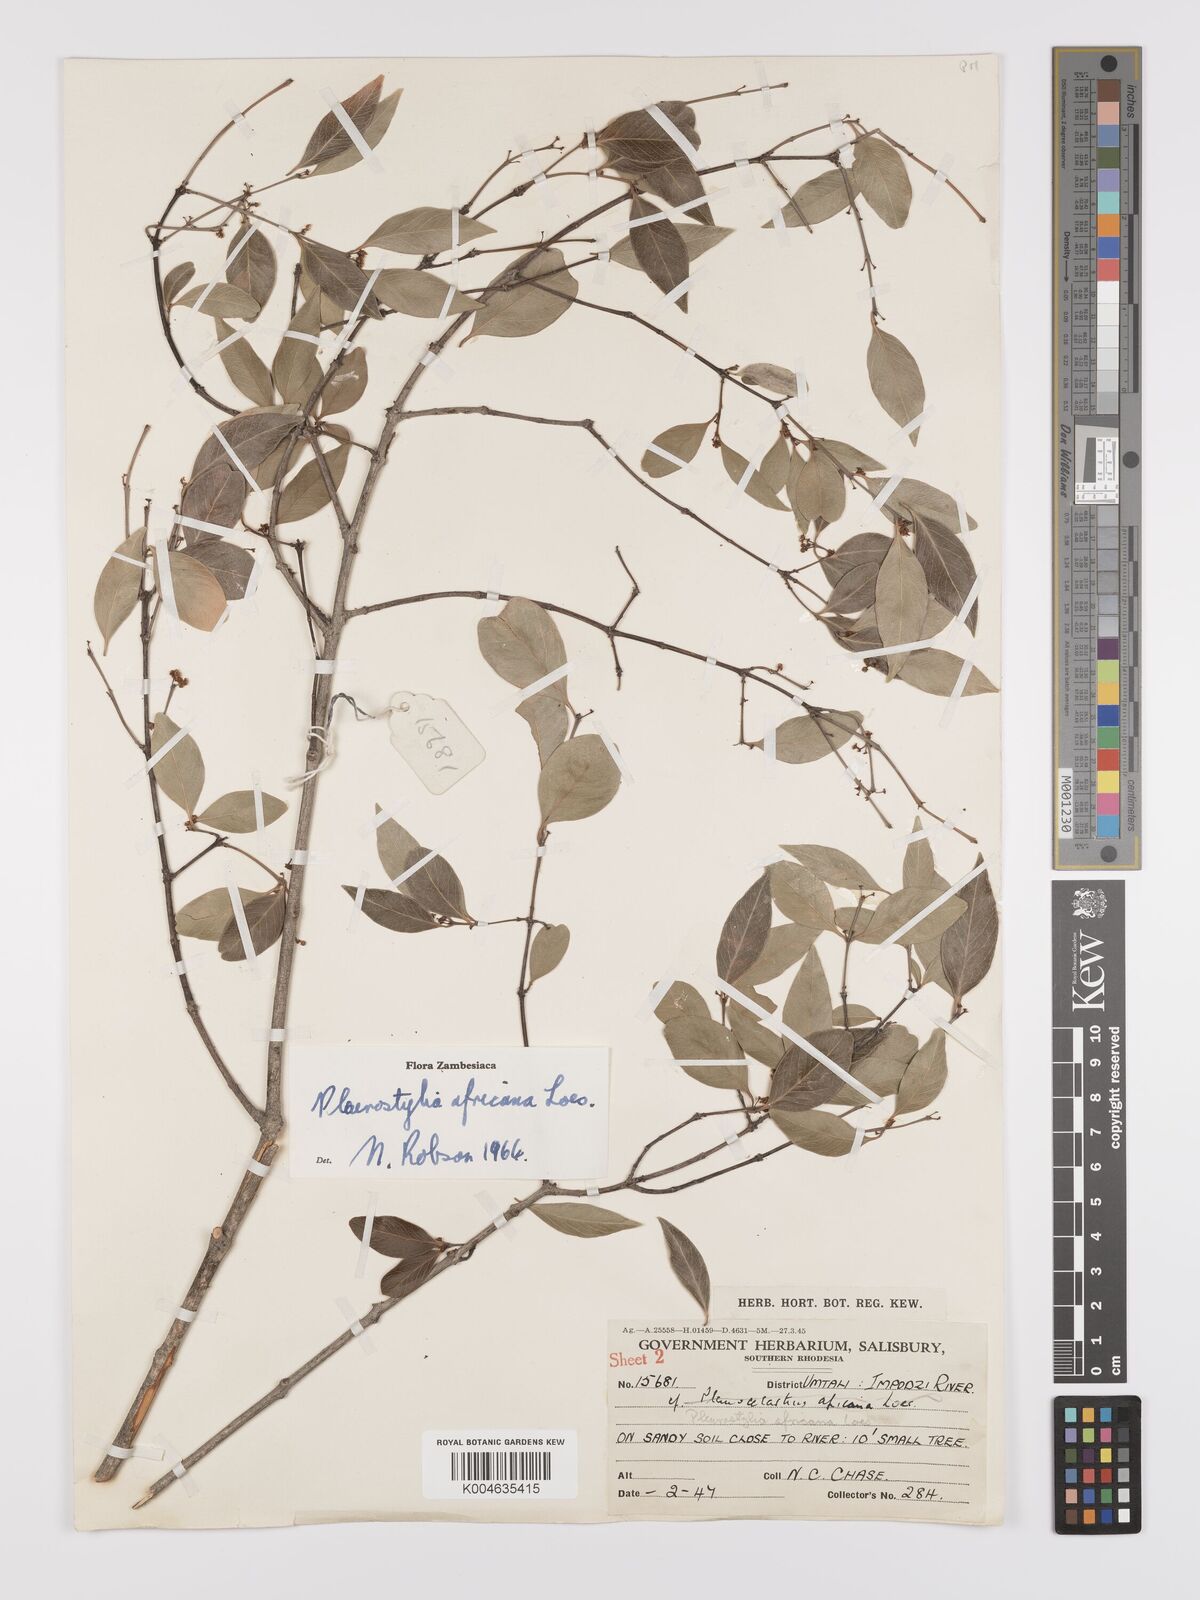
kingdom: Plantae
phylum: Tracheophyta
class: Magnoliopsida
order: Celastrales
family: Celastraceae
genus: Pleurostylia
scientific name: Pleurostylia africana
